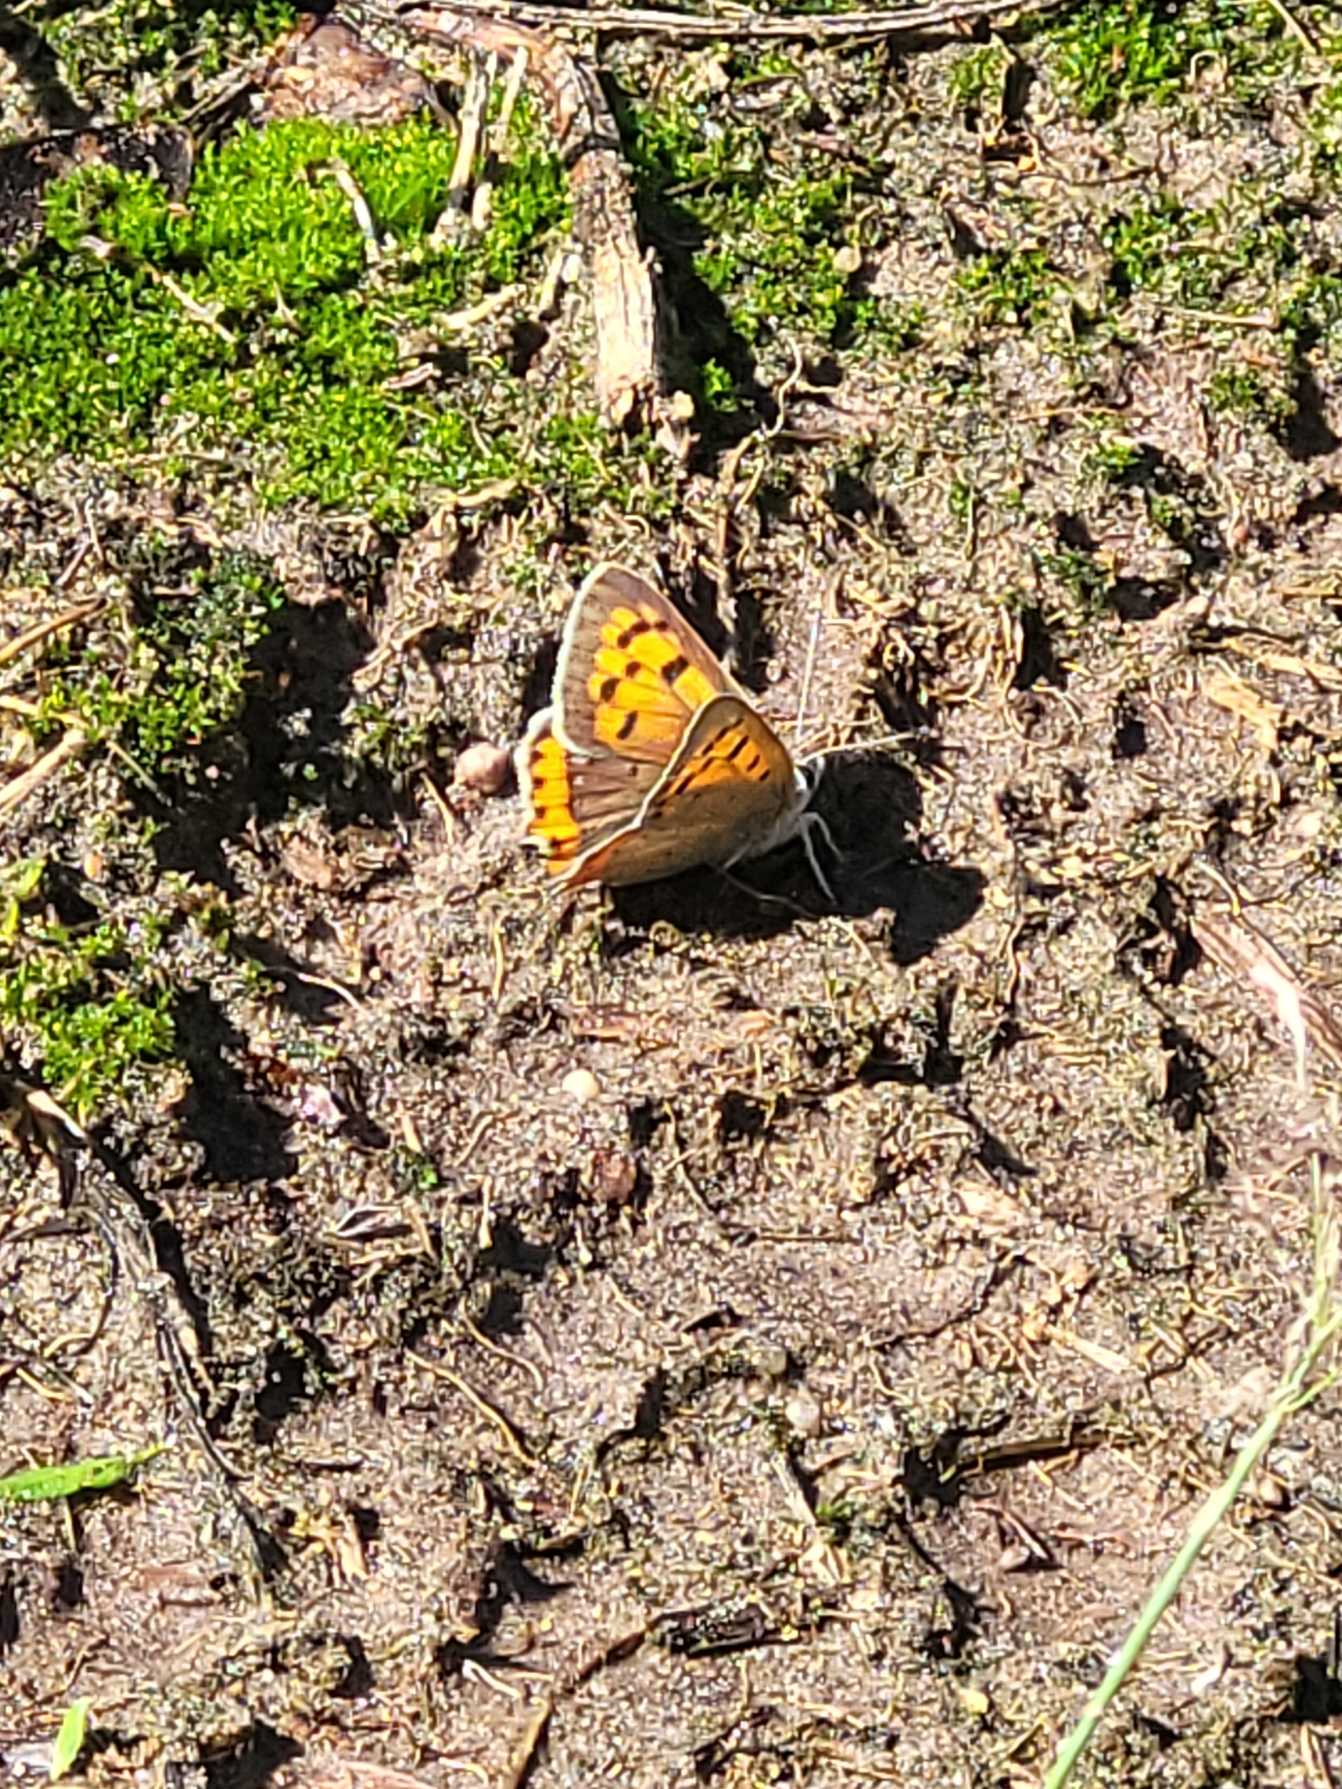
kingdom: Animalia
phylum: Arthropoda
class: Insecta
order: Lepidoptera
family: Lycaenidae
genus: Lycaena
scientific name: Lycaena phlaeas
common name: Lille ildfugl
